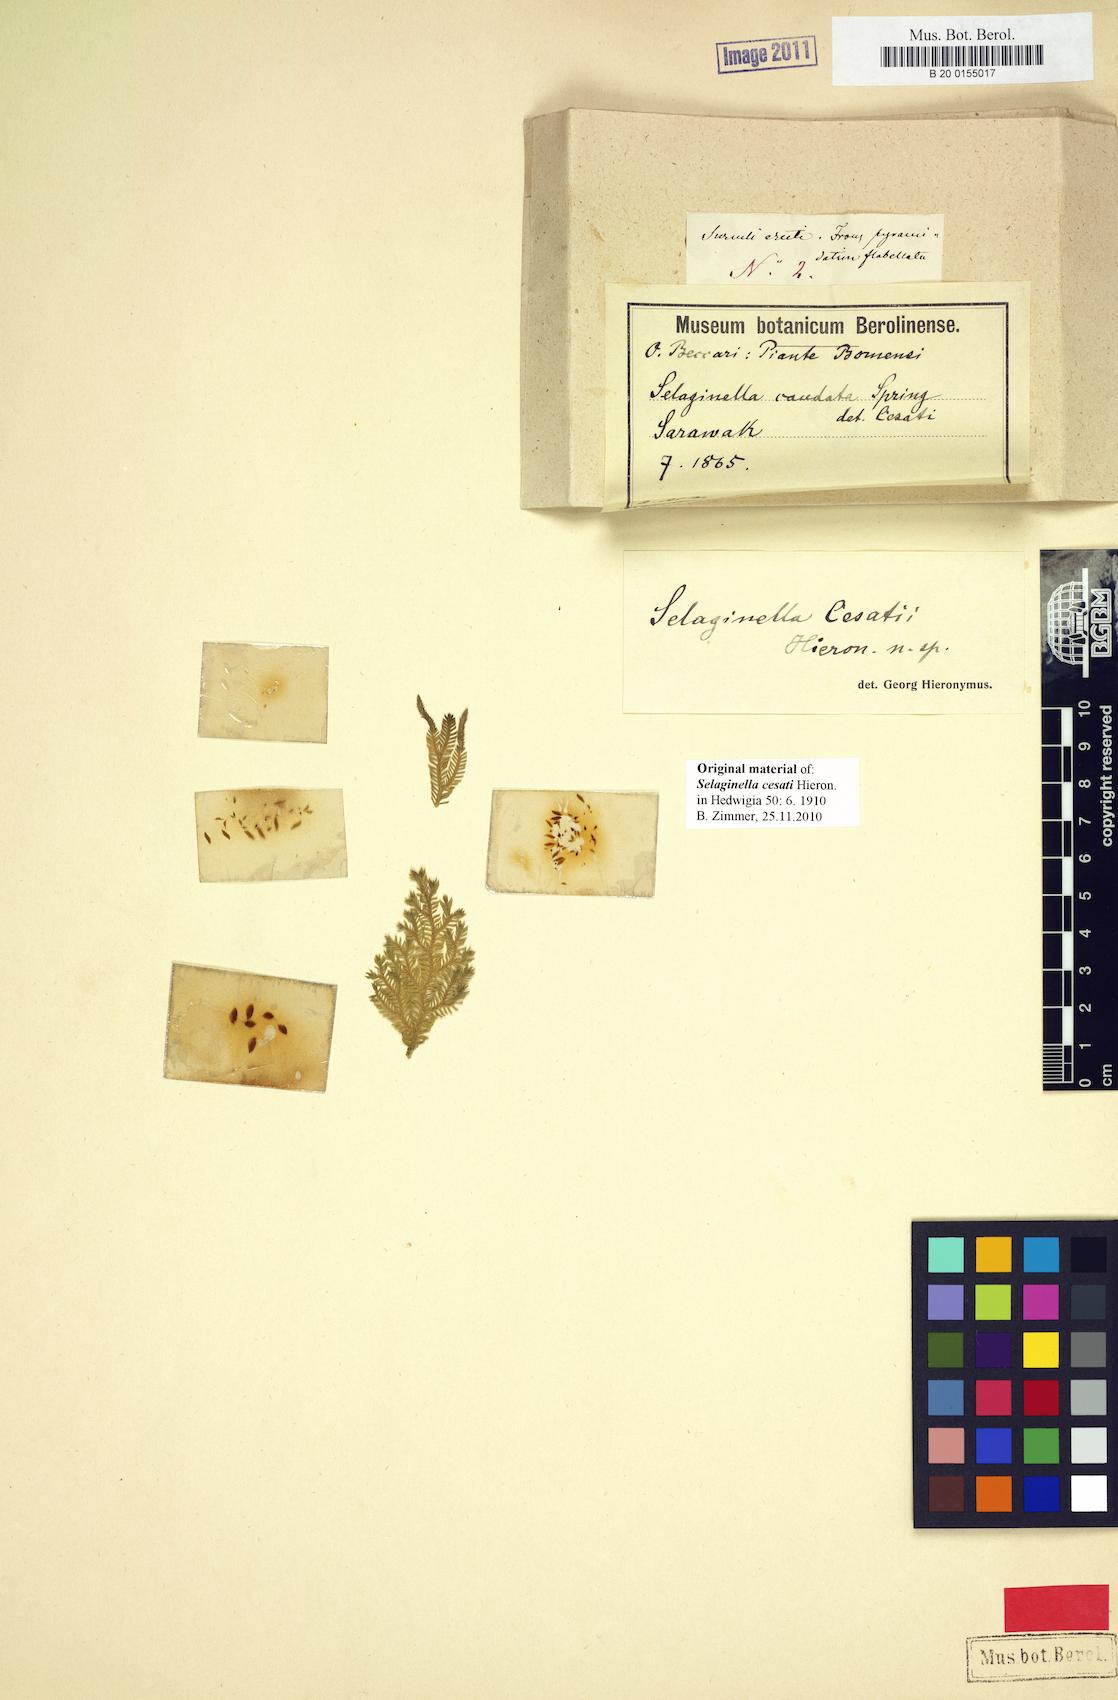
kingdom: Plantae
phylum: Tracheophyta
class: Lycopodiopsida
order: Selaginellales
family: Selaginellaceae
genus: Selaginella
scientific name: Selaginella cesatii
